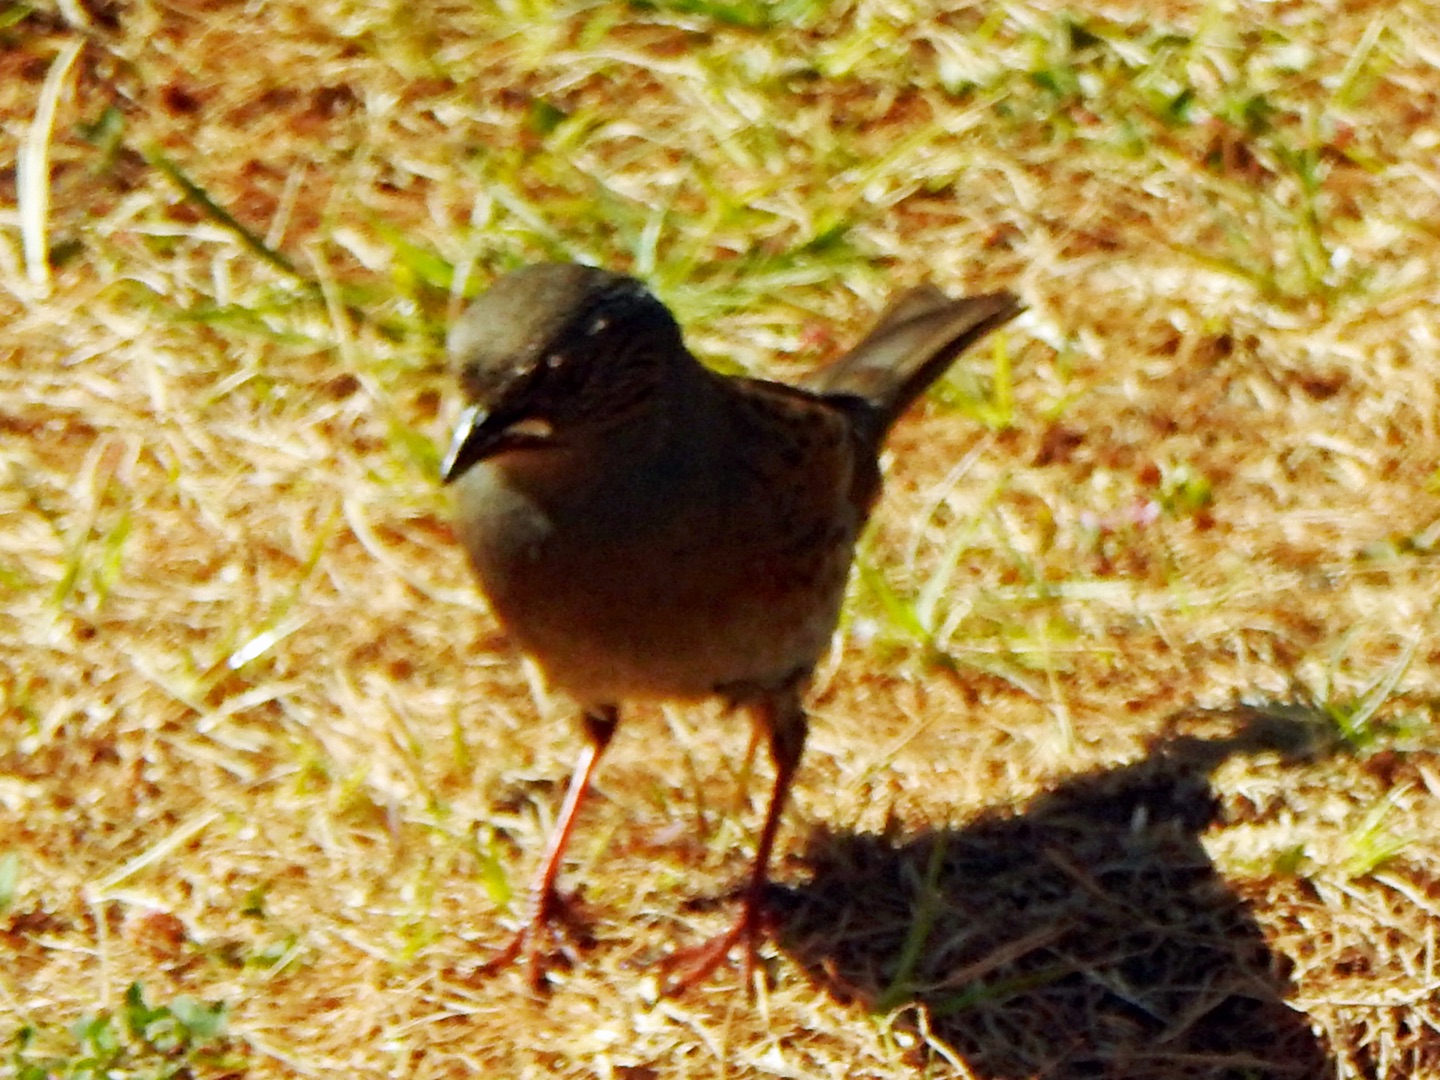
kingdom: Animalia
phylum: Chordata
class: Aves
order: Passeriformes
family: Prunellidae
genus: Prunella
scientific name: Prunella modularis
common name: Jernspurv
